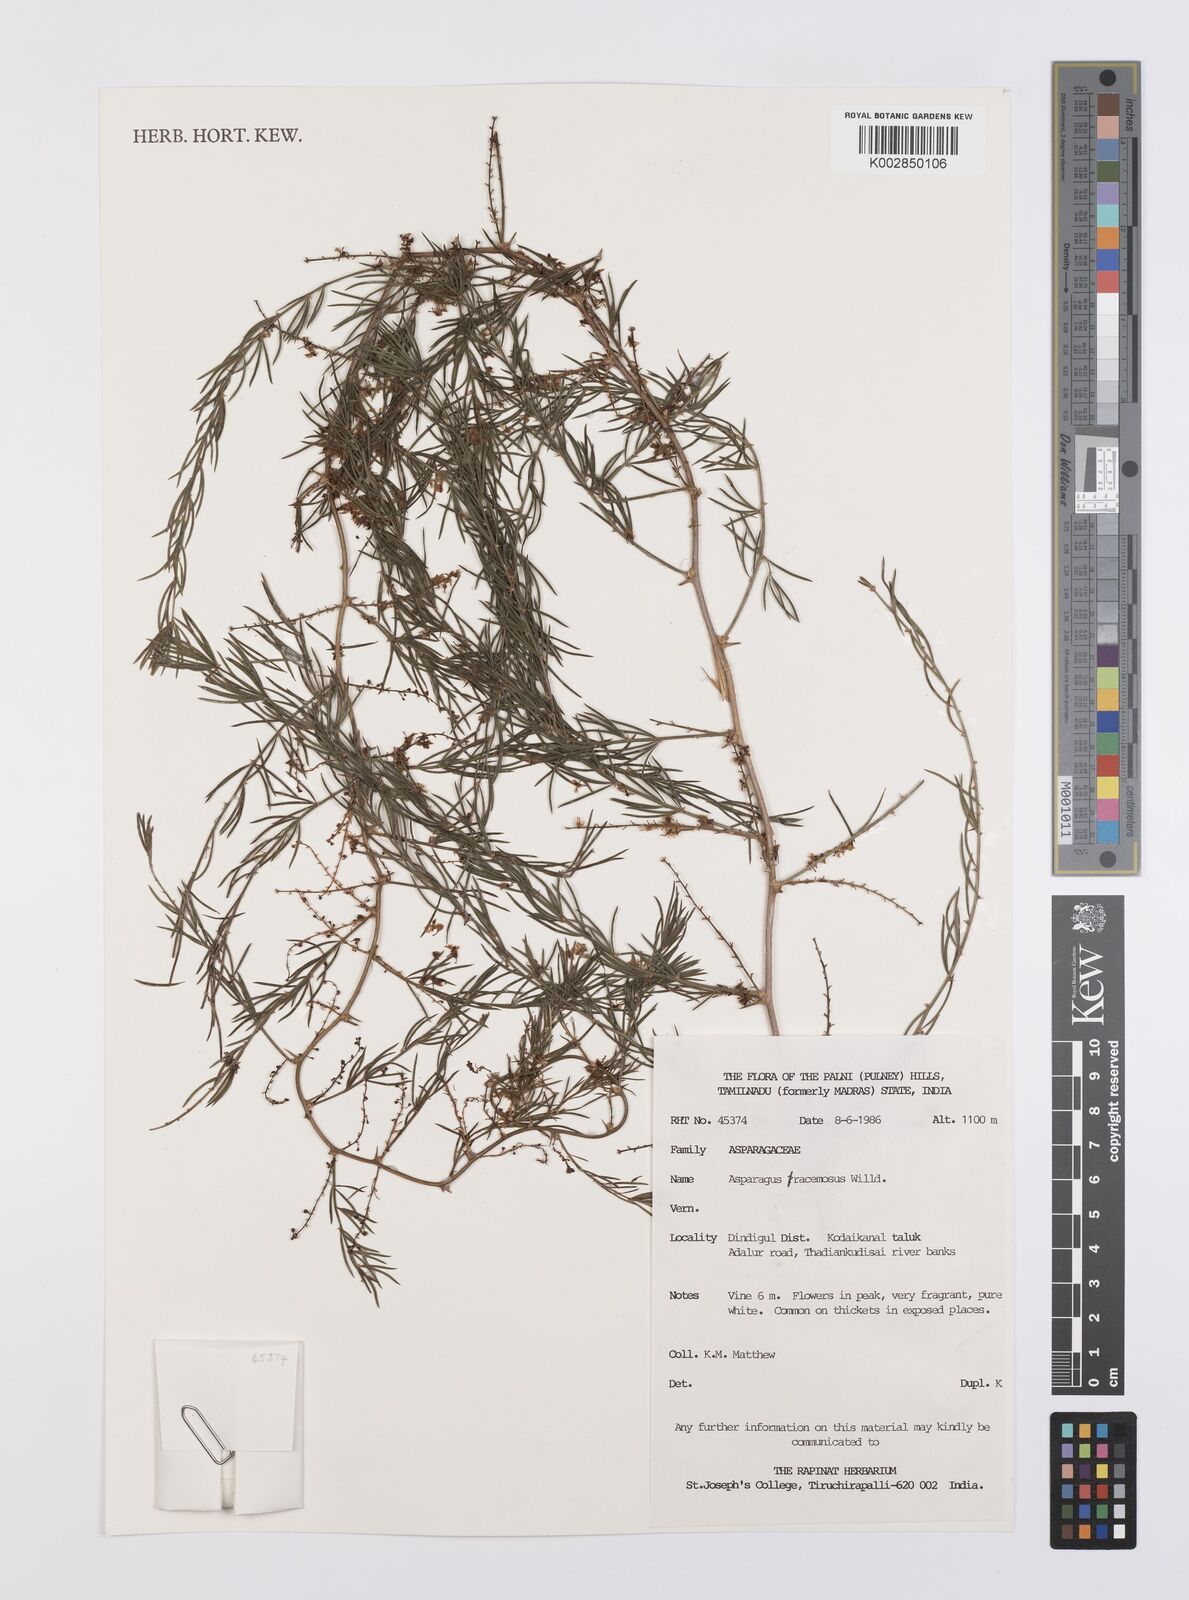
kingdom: Plantae
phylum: Tracheophyta
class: Liliopsida
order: Asparagales
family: Asparagaceae
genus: Asparagus
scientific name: Asparagus racemosus
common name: Asparagus-fern
